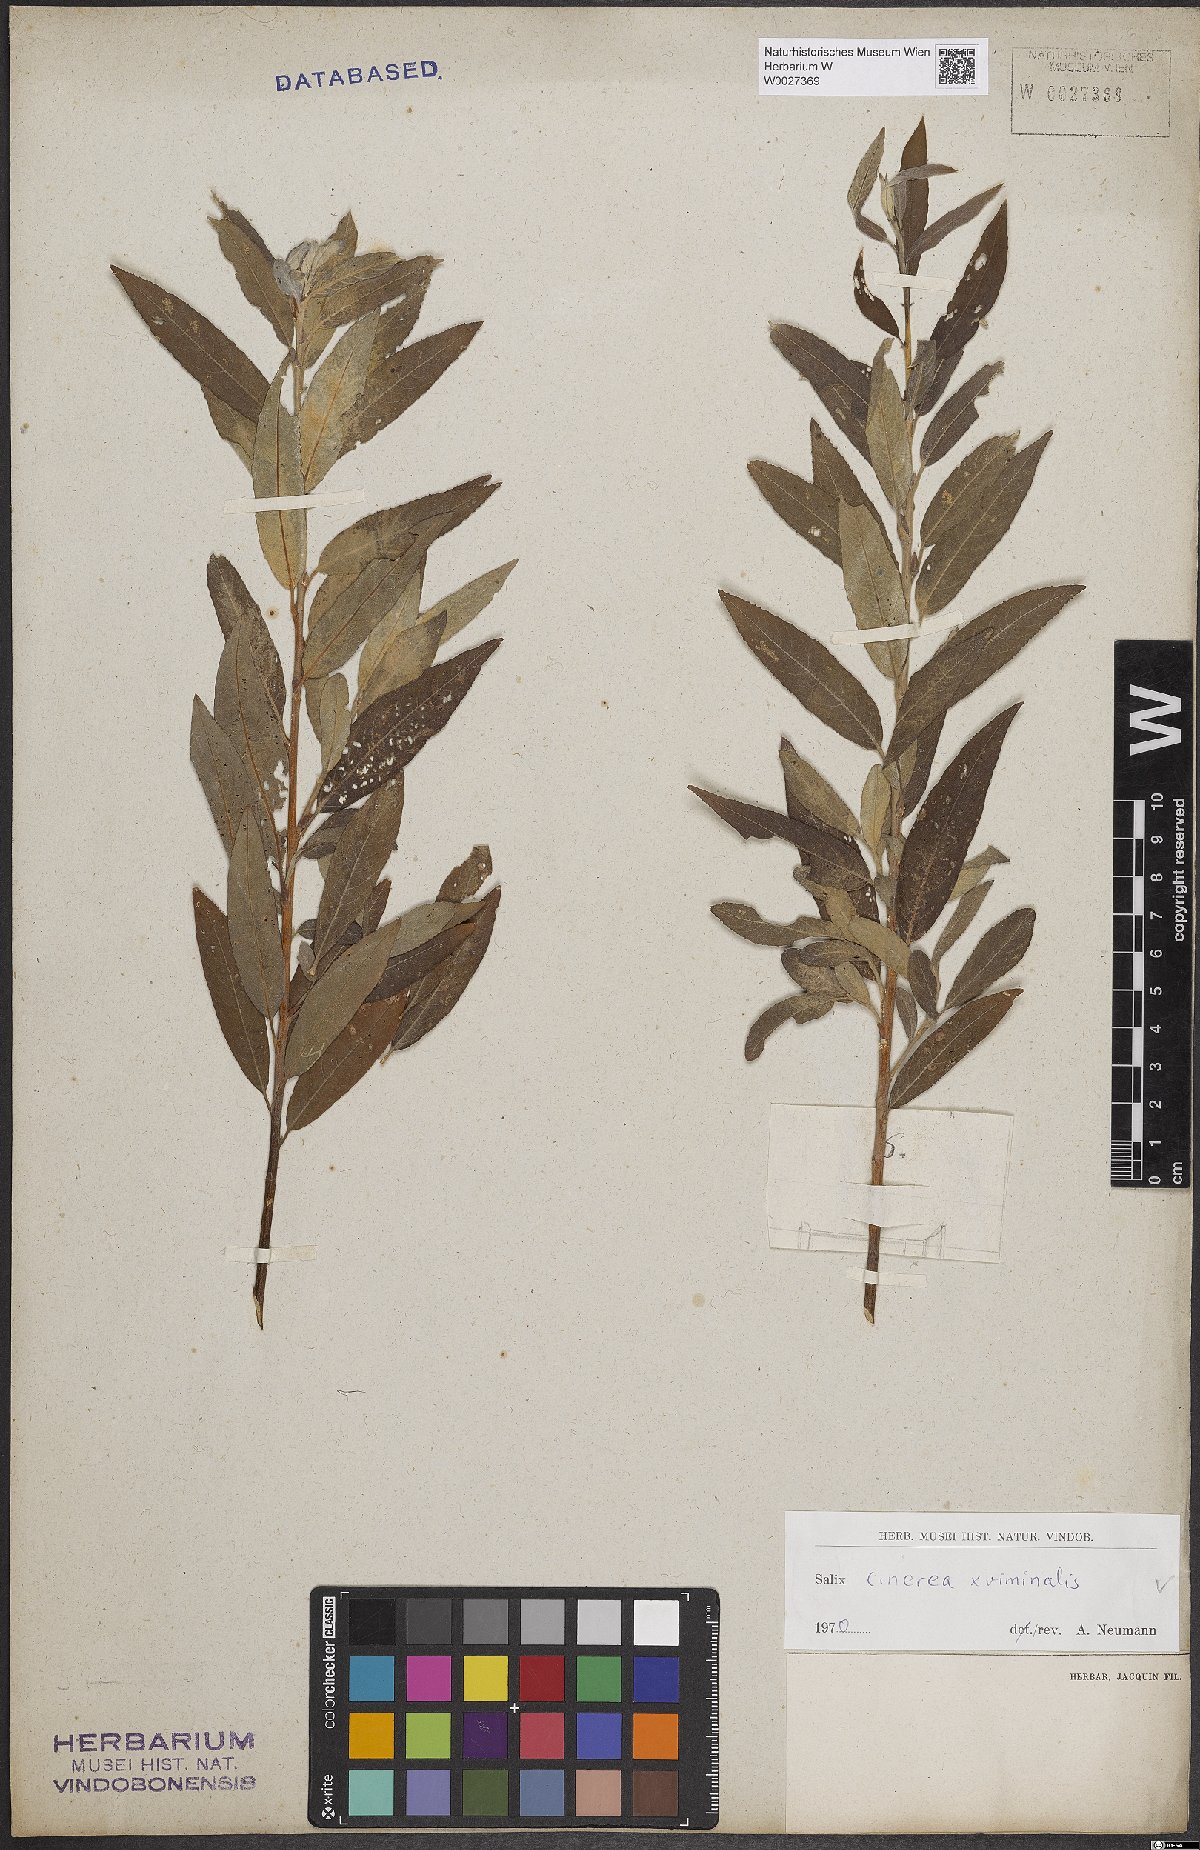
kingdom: Plantae
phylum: Tracheophyta
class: Magnoliopsida
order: Malpighiales
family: Salicaceae
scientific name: Salicaceae
